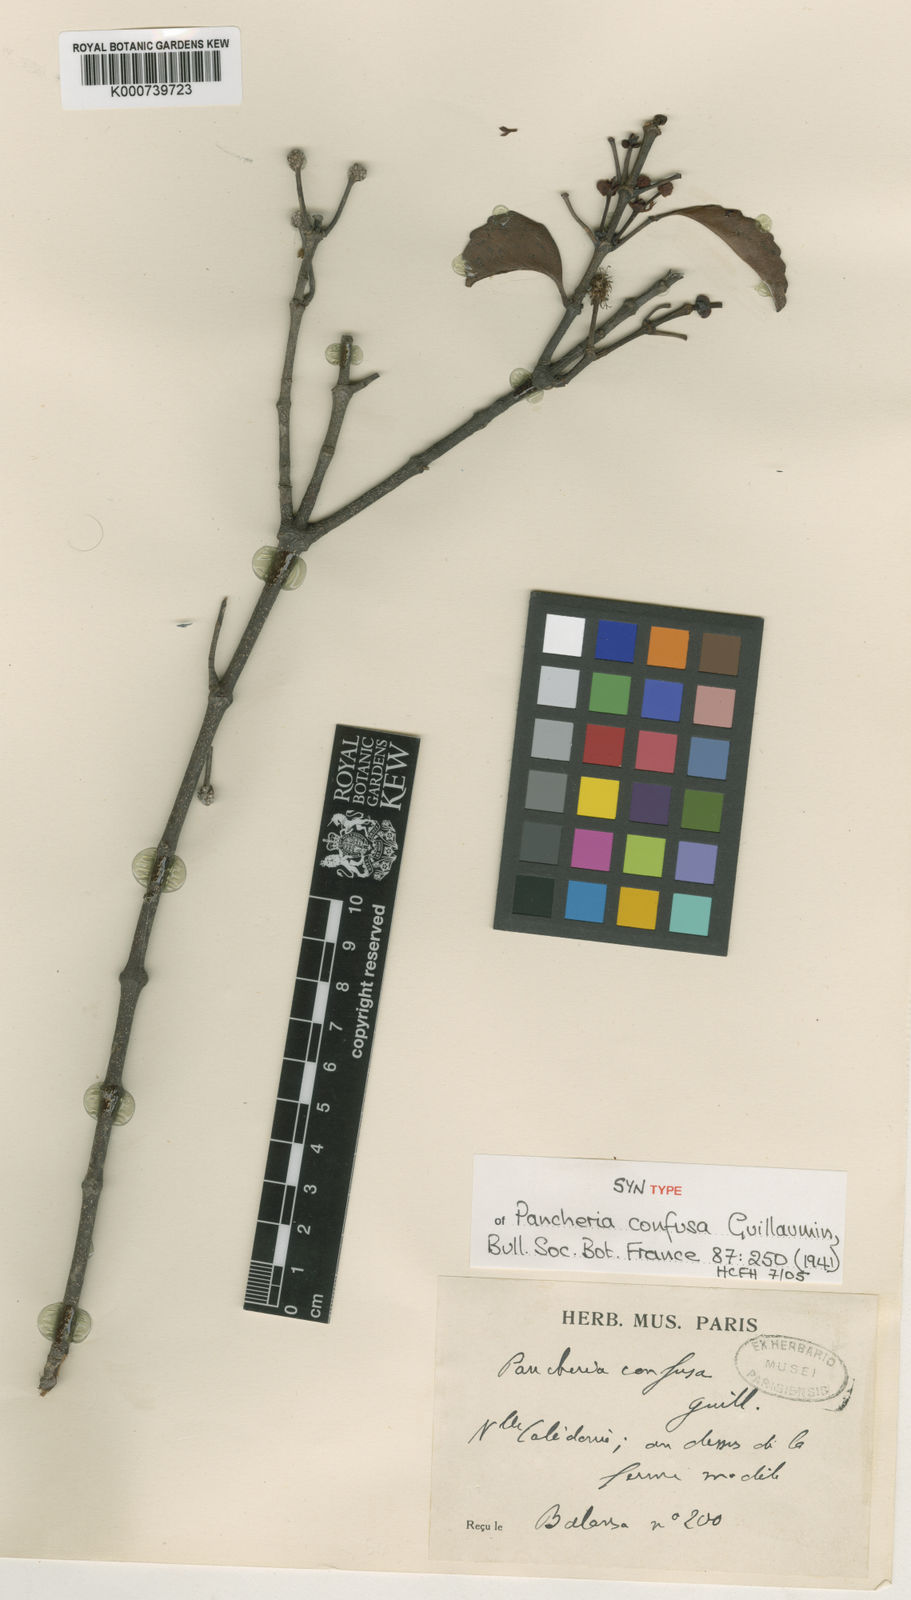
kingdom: Plantae
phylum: Tracheophyta
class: Magnoliopsida
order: Oxalidales
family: Cunoniaceae
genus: Pancheria
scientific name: Pancheria confusa
